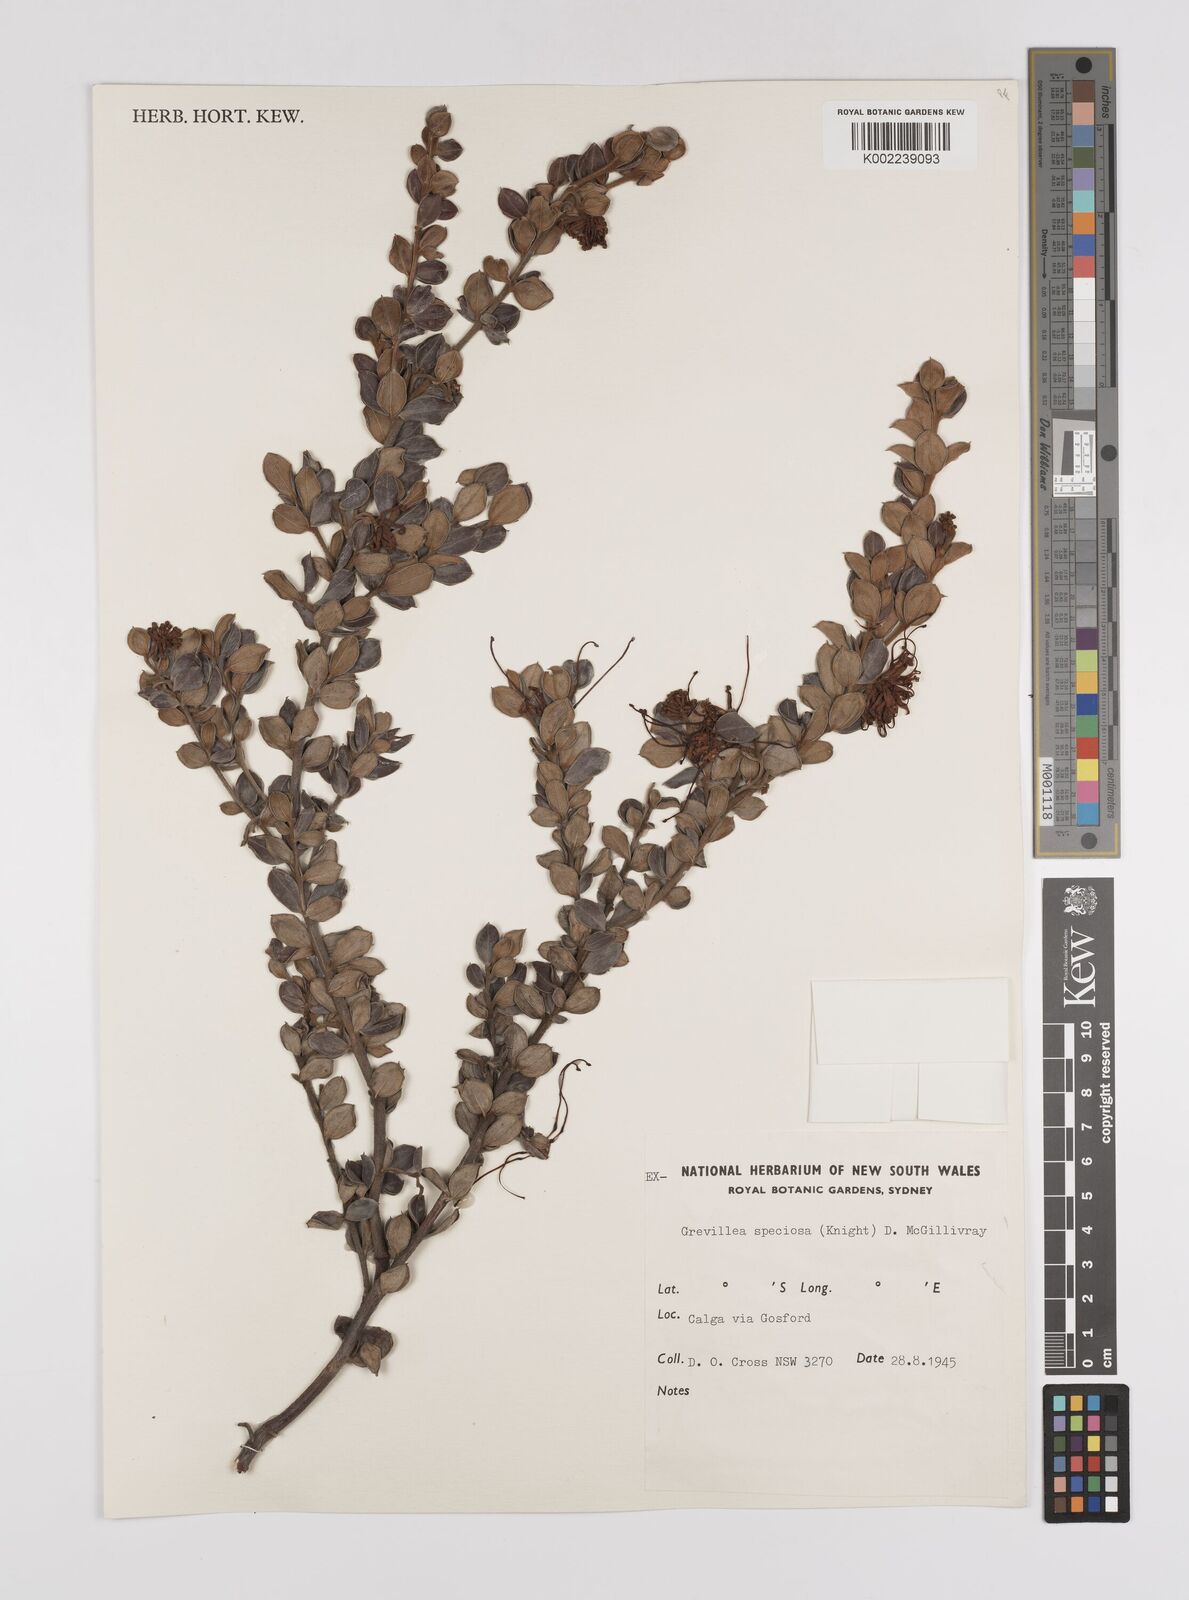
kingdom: Plantae
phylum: Tracheophyta
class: Magnoliopsida
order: Proteales
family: Proteaceae
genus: Grevillea
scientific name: Grevillea speciosa
